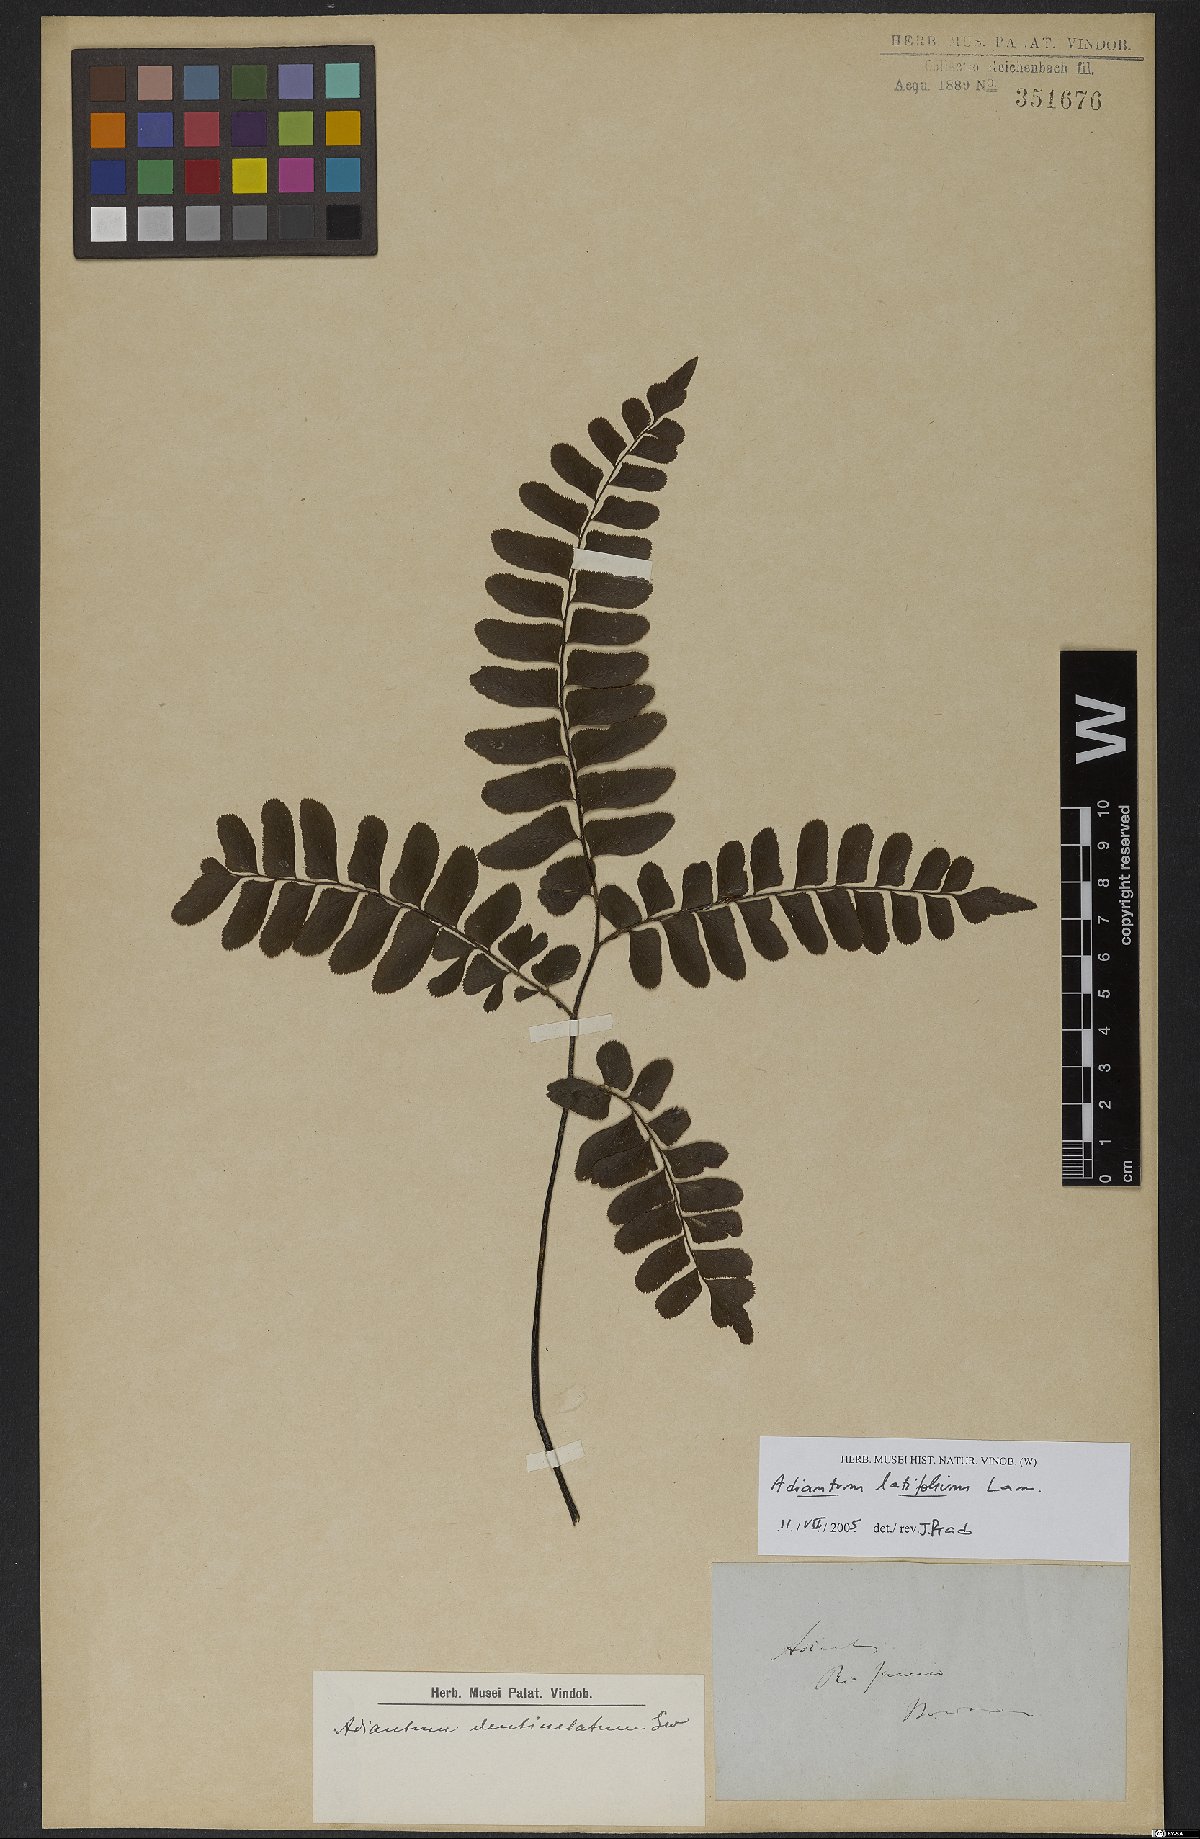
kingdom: Plantae
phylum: Tracheophyta
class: Polypodiopsida
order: Polypodiales
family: Pteridaceae
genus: Adiantum
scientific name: Adiantum latifolium
